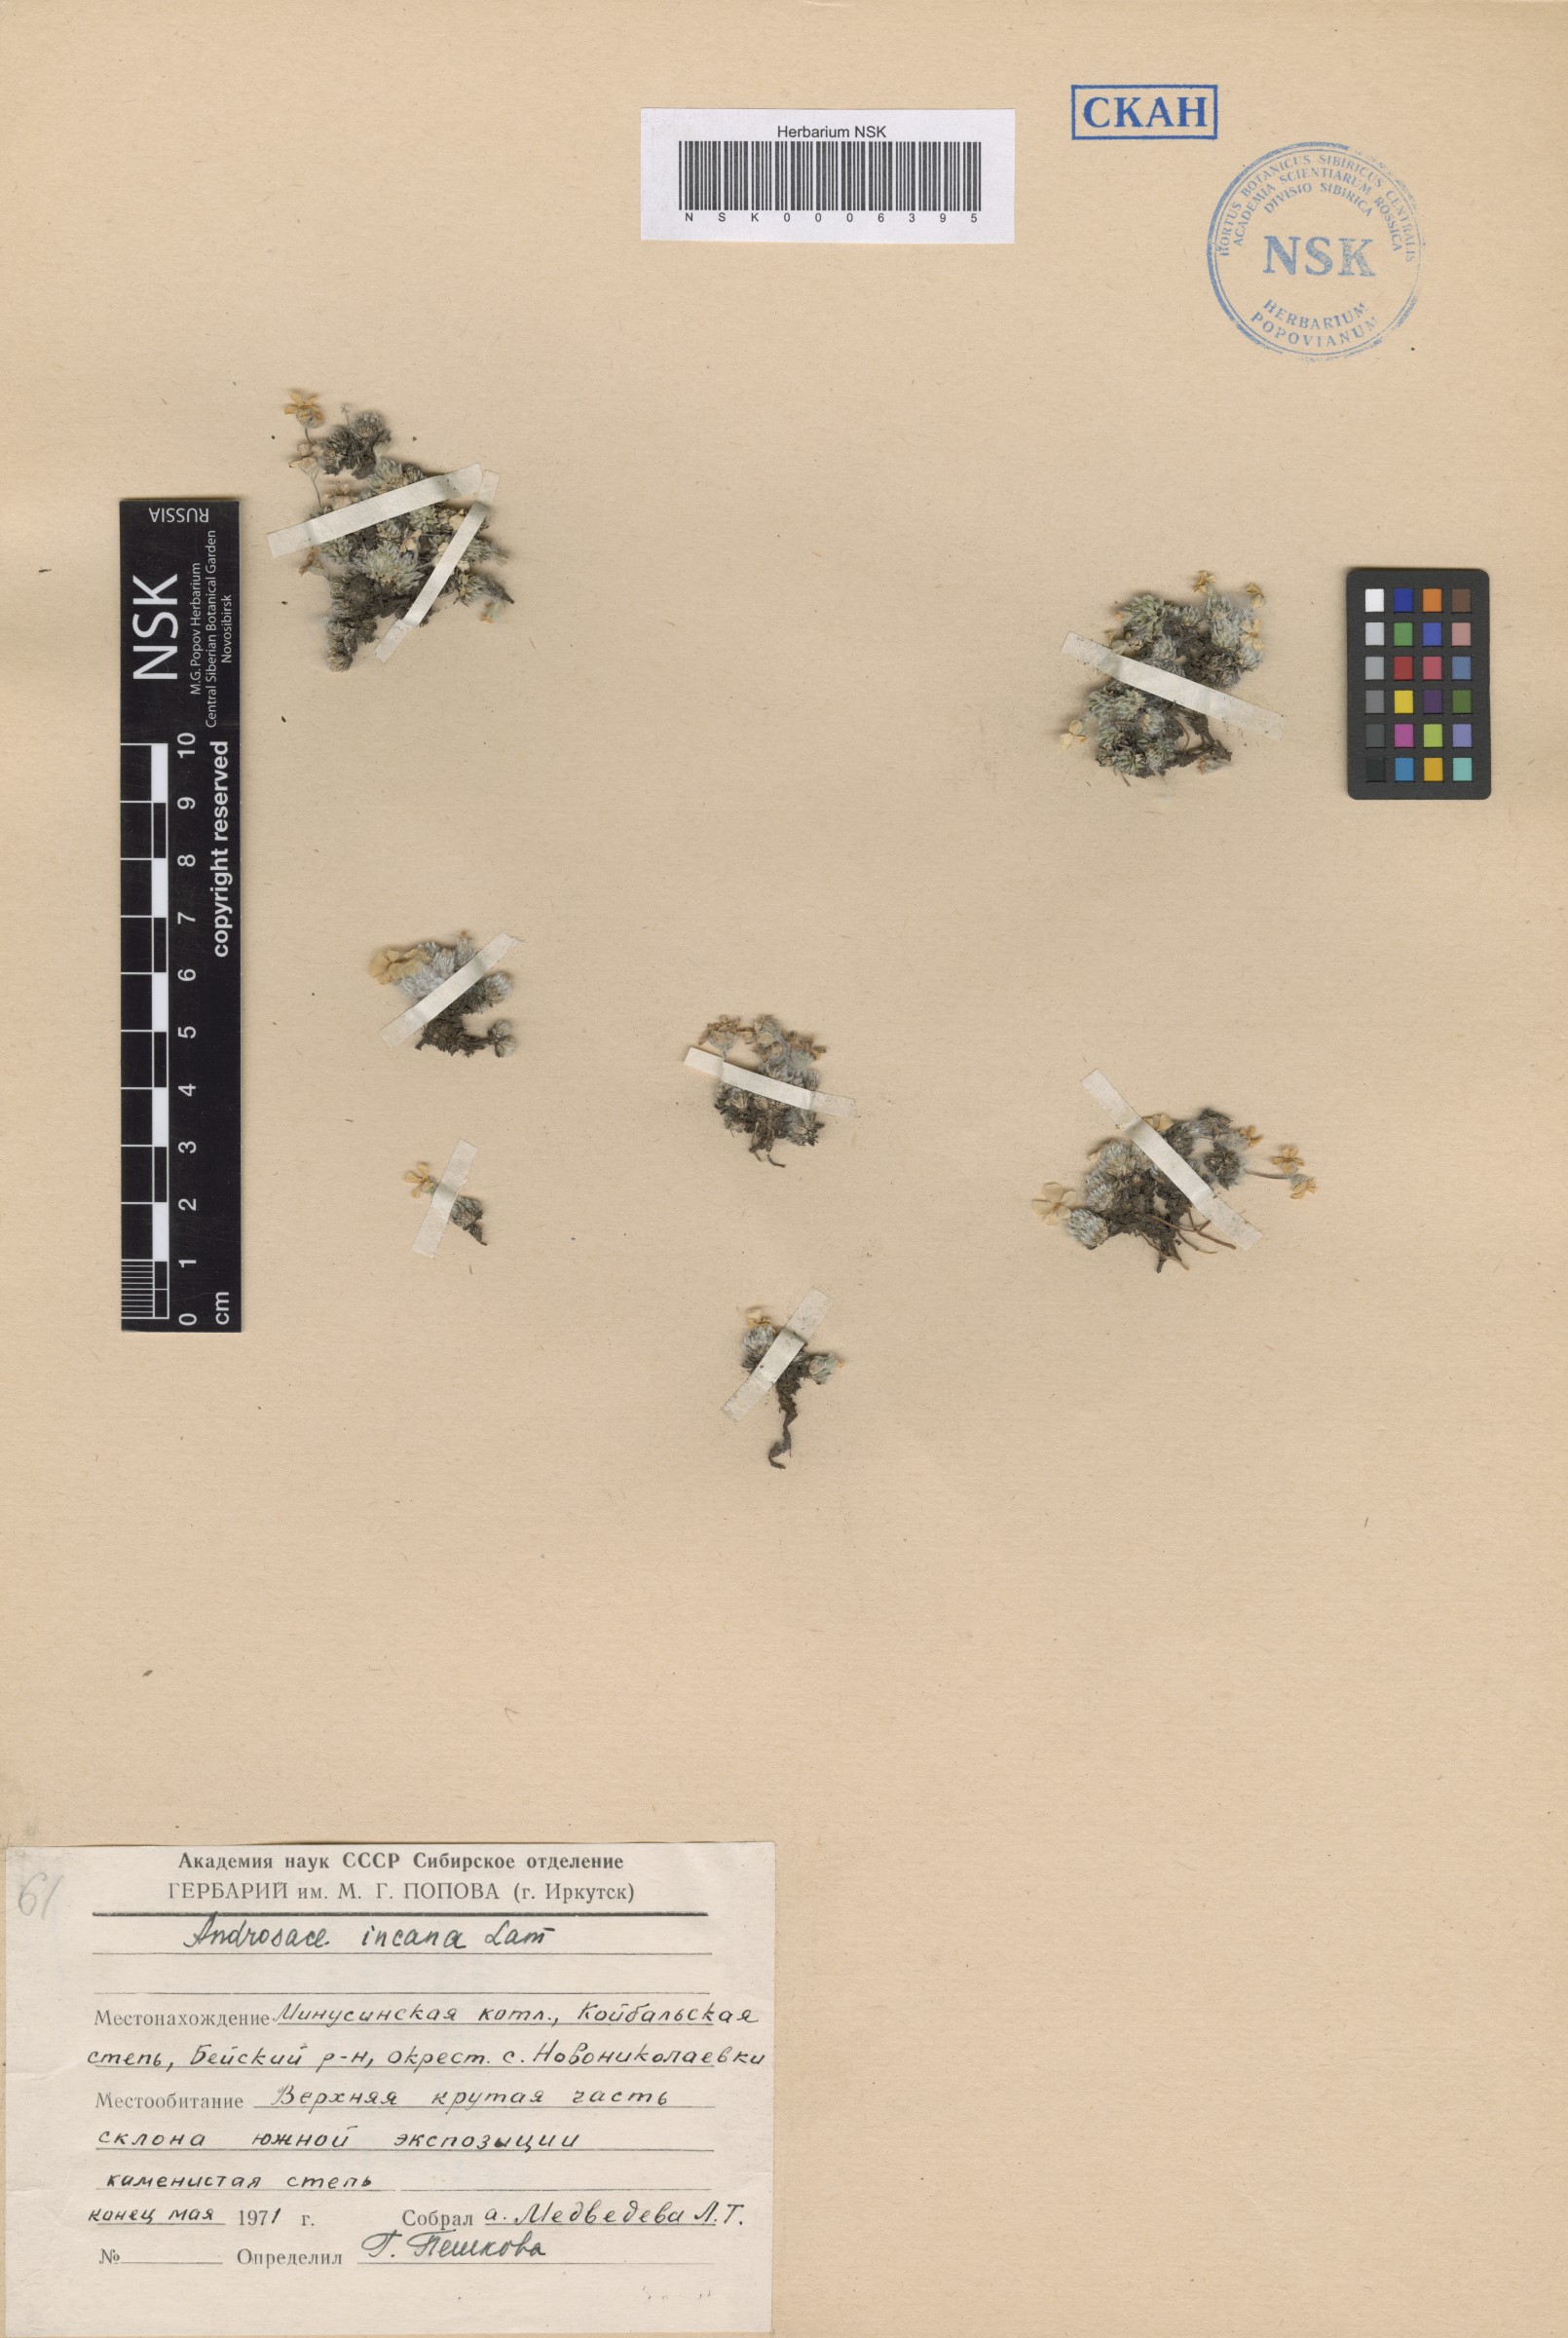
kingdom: Plantae
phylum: Tracheophyta
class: Magnoliopsida
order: Ericales
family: Primulaceae
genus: Androsace
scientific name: Androsace incana
